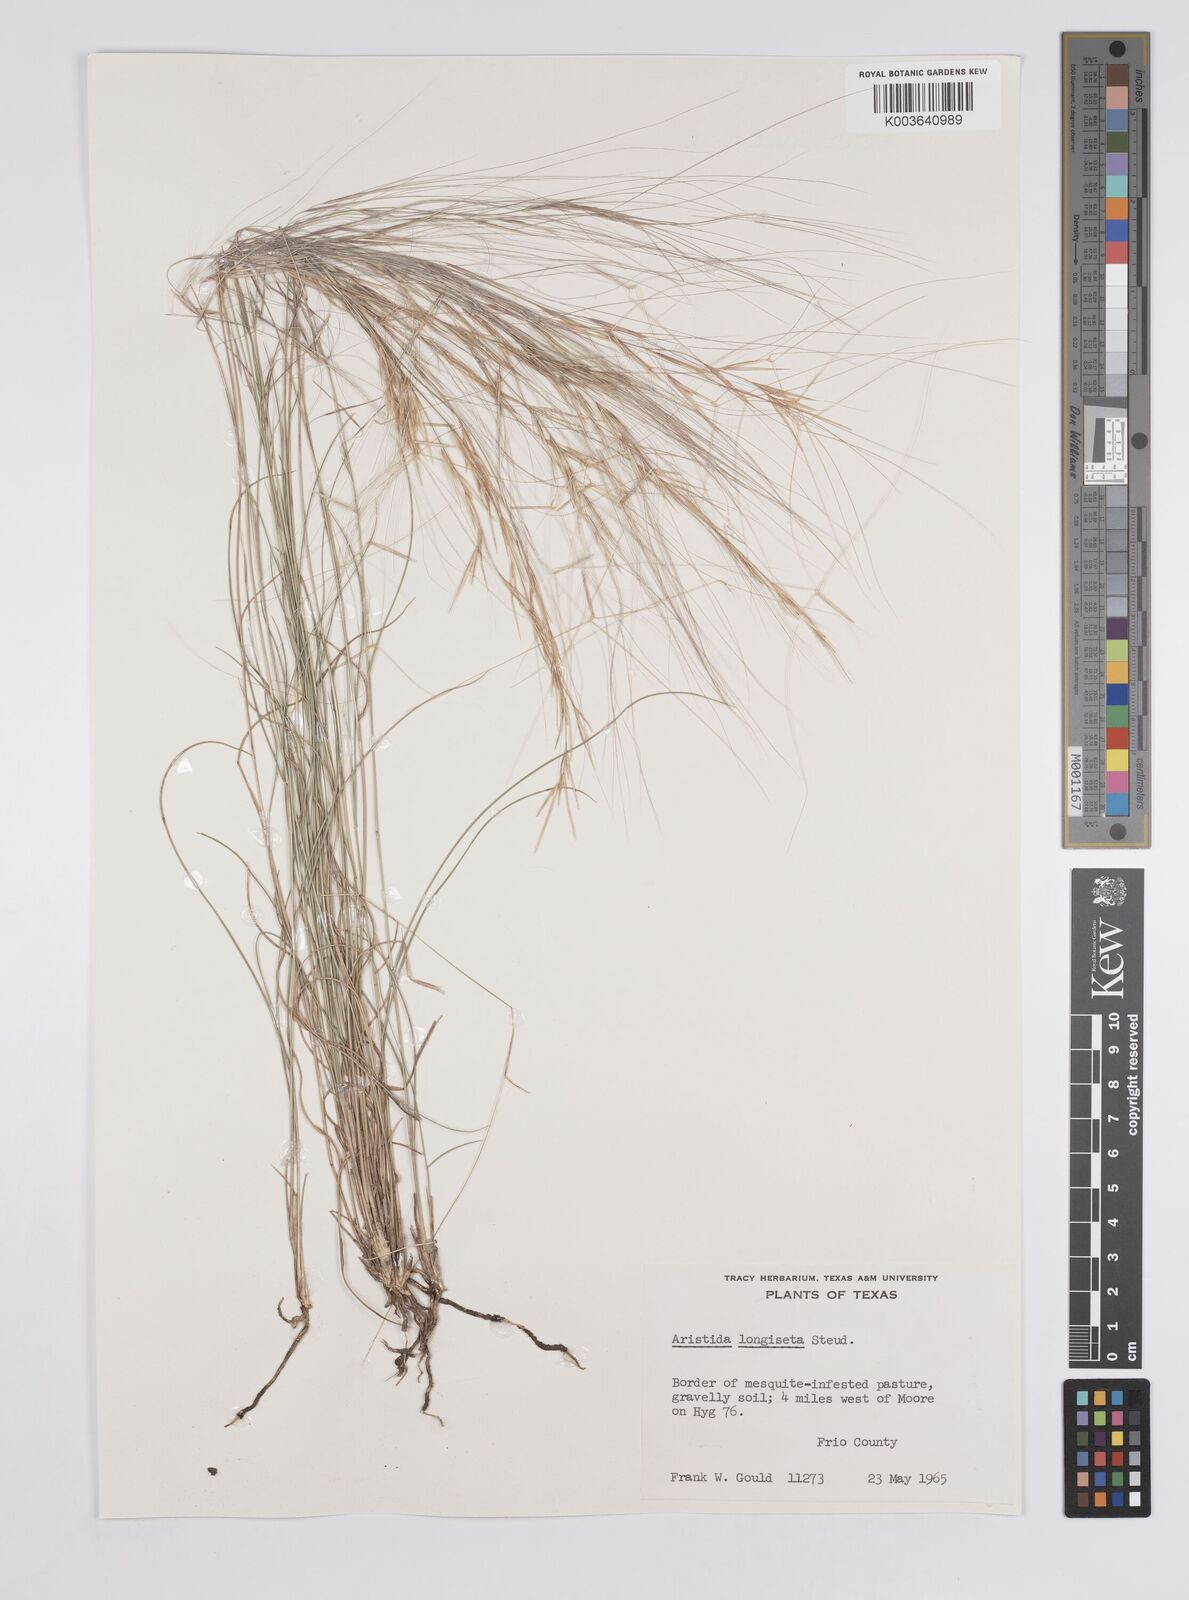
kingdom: Plantae
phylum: Tracheophyta
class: Liliopsida
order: Poales
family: Poaceae
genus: Aristida
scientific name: Aristida purpurea
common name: Purple threeawn
